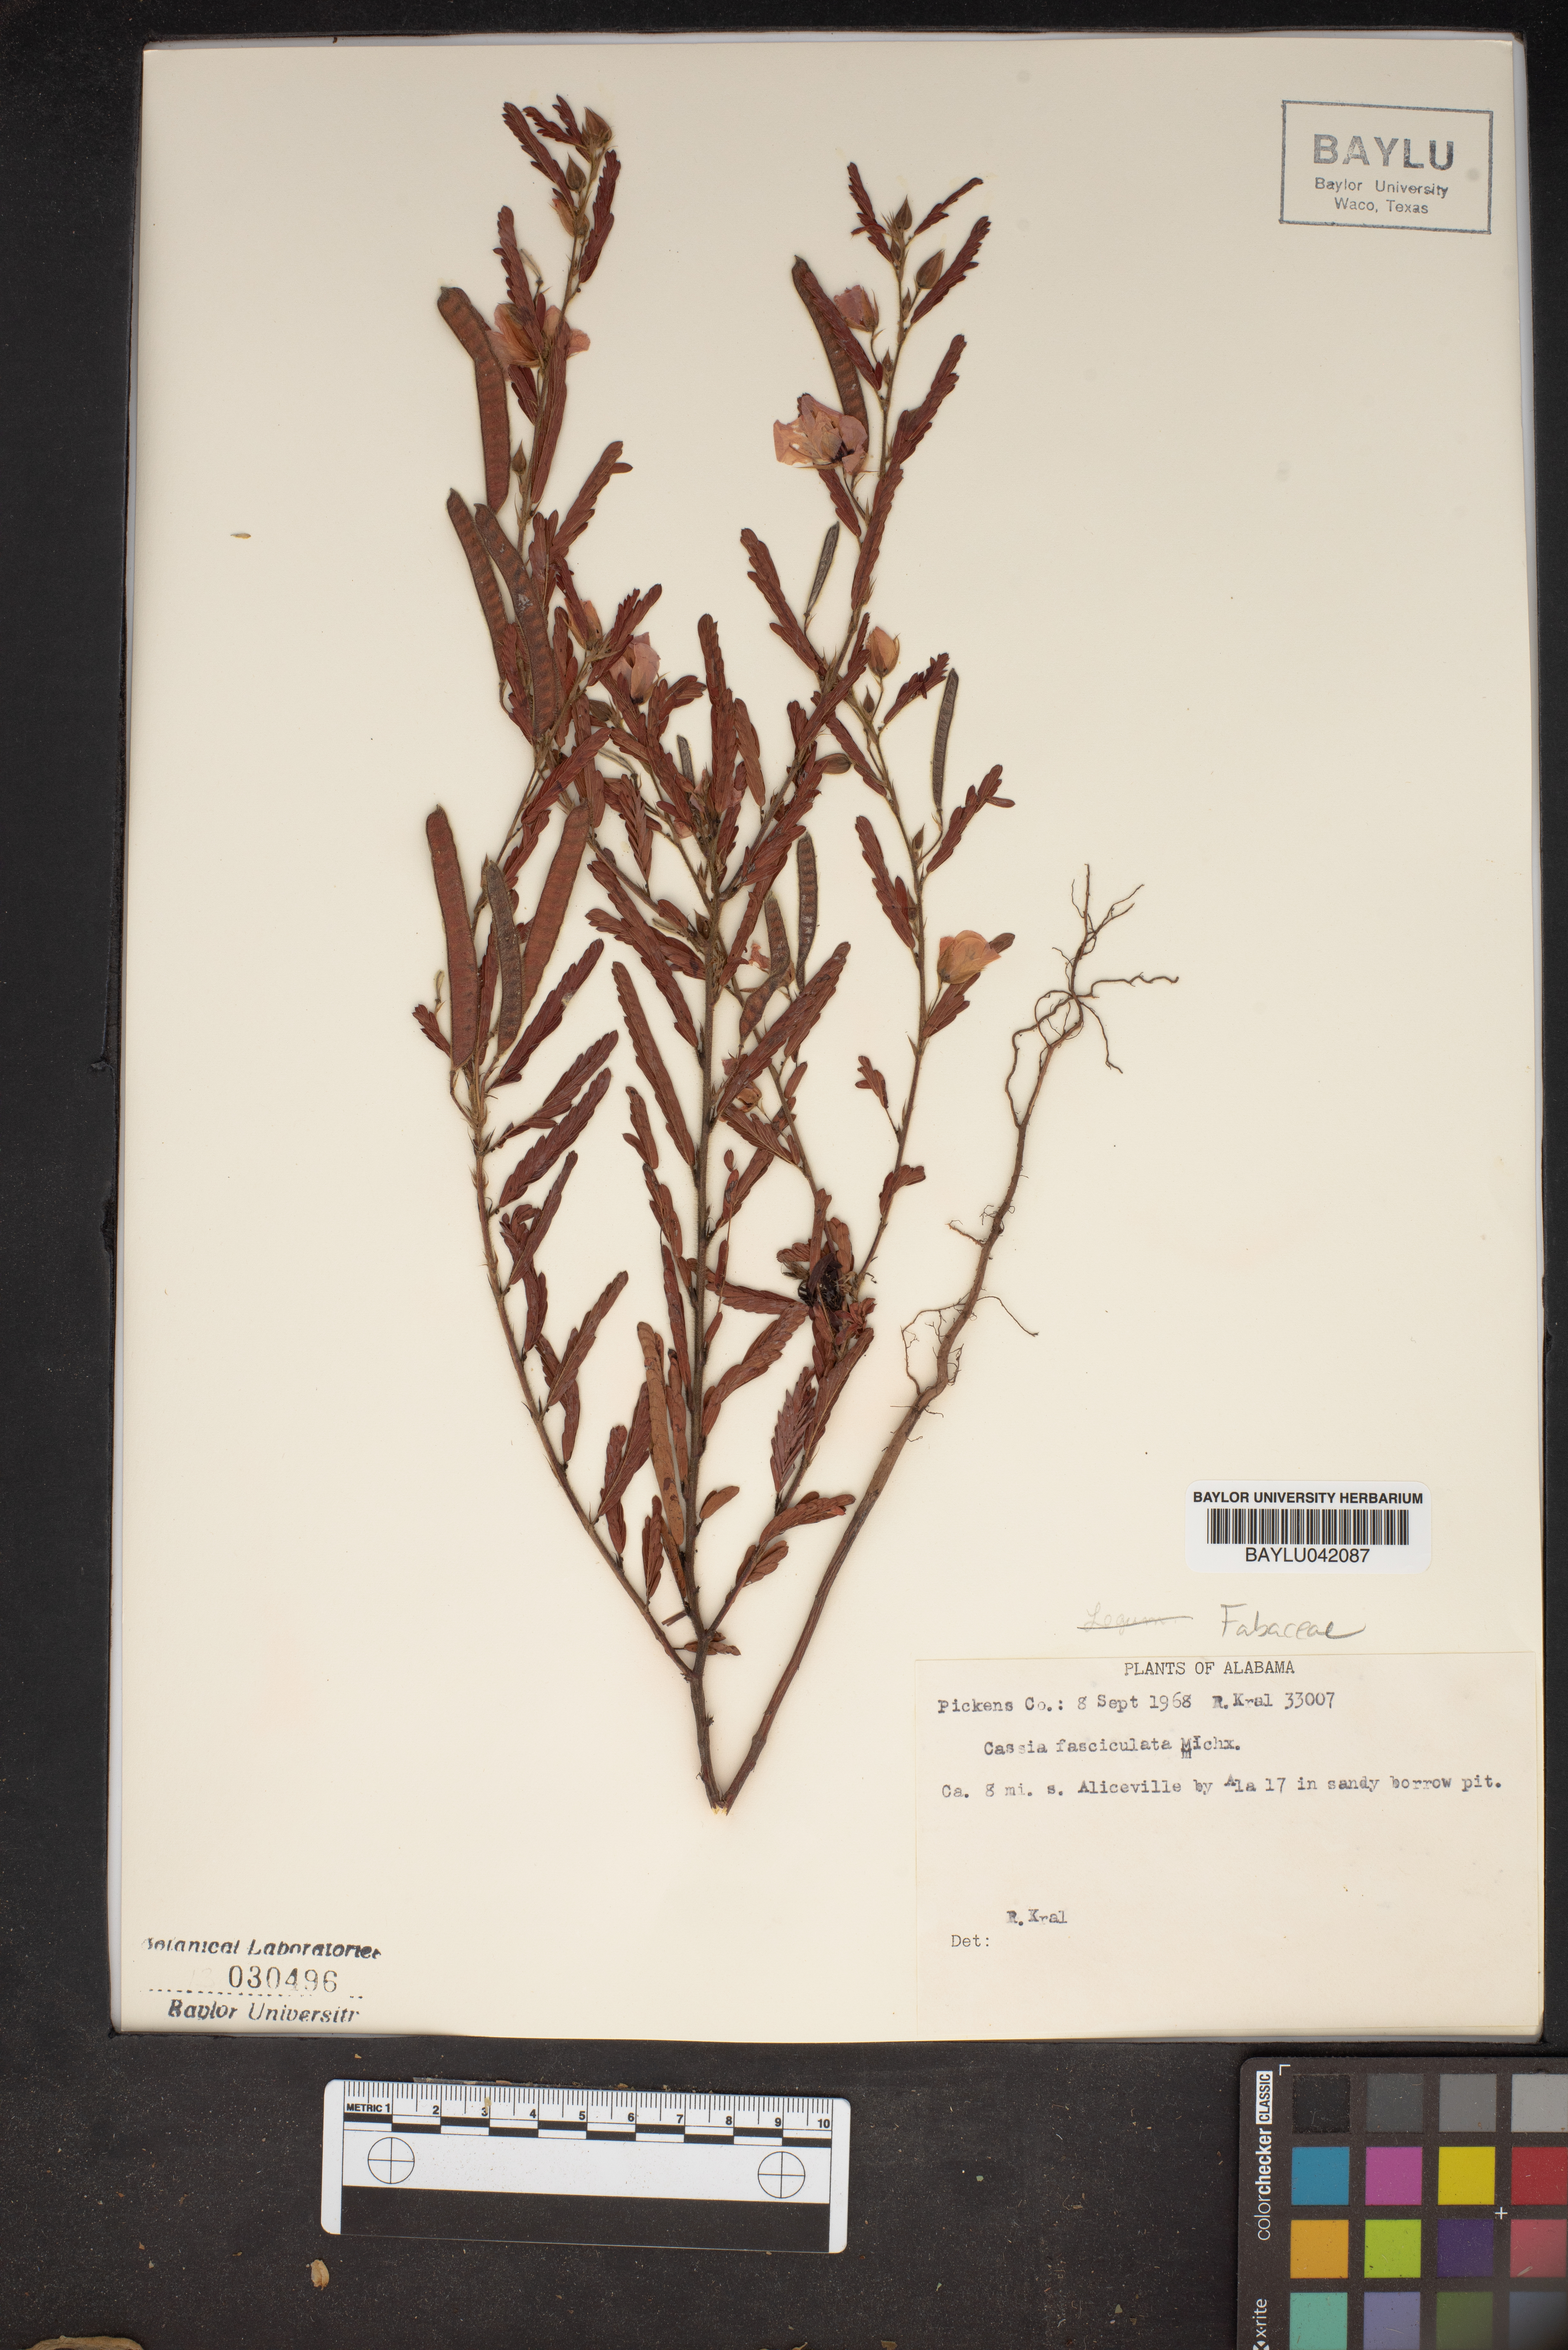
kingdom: Plantae
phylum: Tracheophyta
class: Magnoliopsida
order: Fabales
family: Fabaceae
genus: Chamaecrista
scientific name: Chamaecrista fasciculata
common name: Golden cassia
